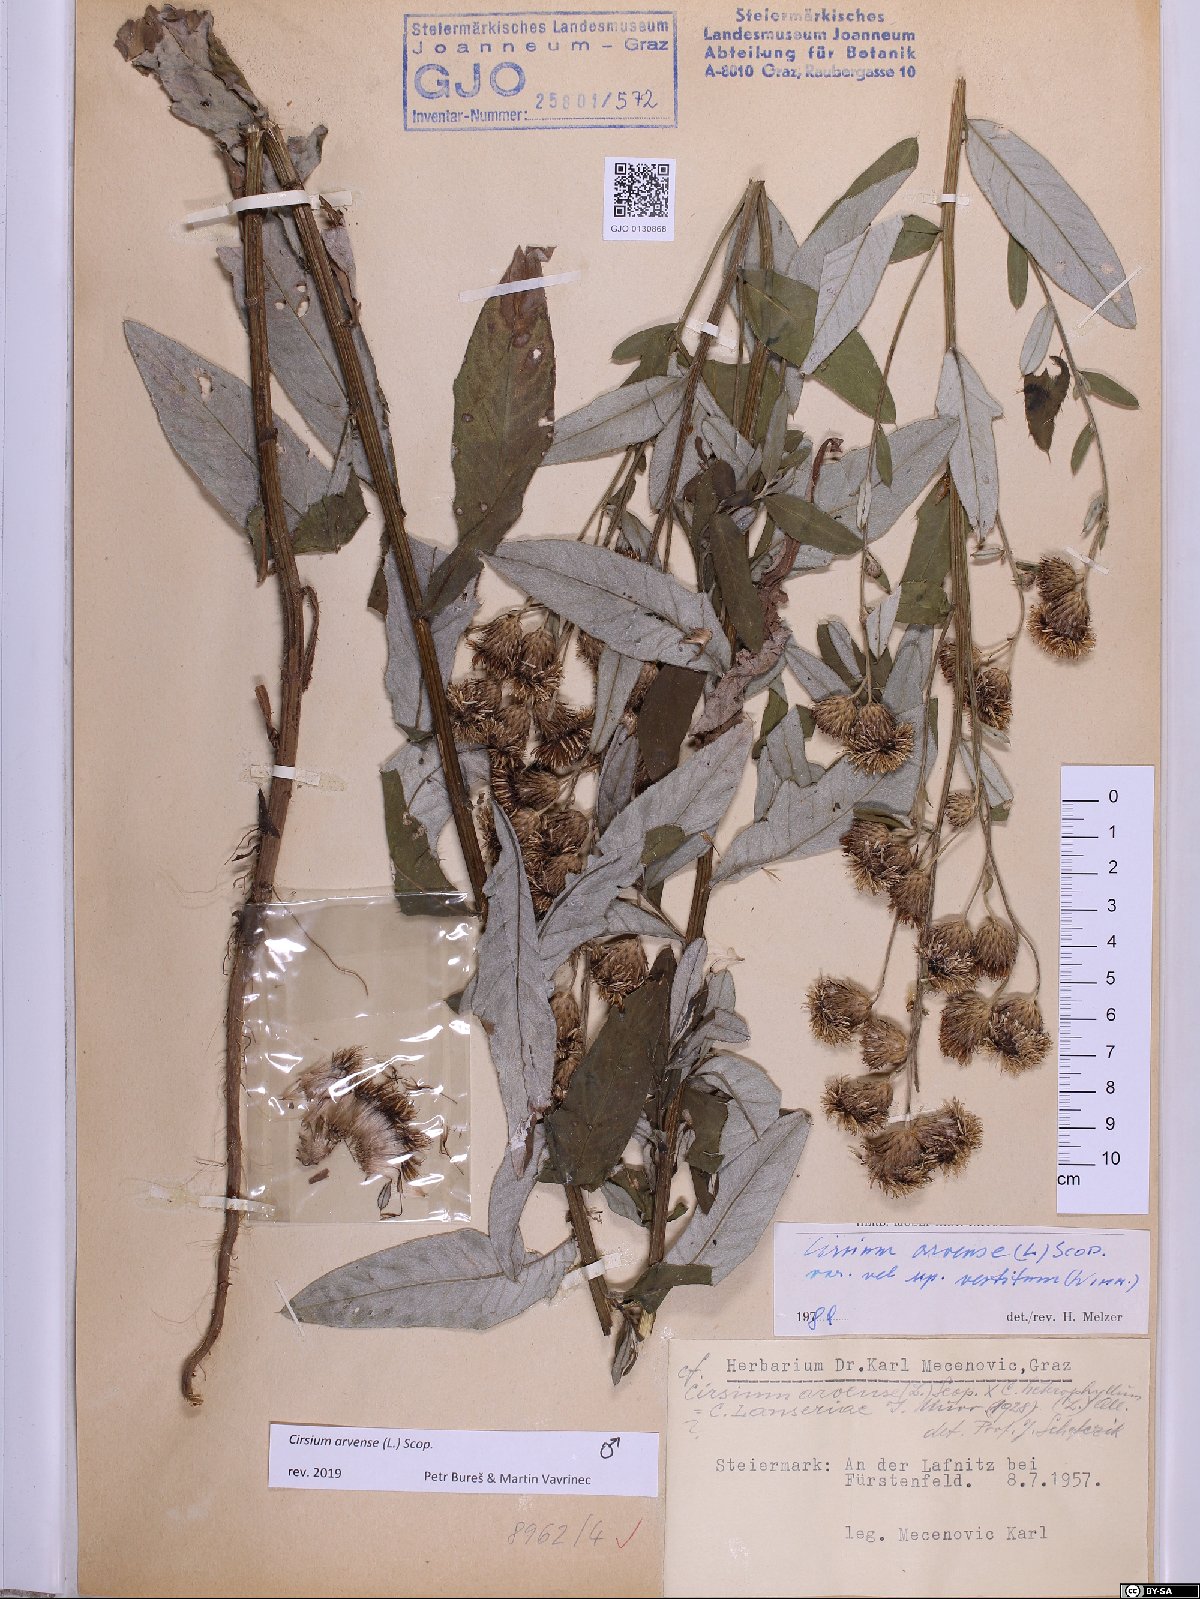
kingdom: Plantae
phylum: Tracheophyta
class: Magnoliopsida
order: Asterales
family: Asteraceae
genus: Cirsium
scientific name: Cirsium arvense
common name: Creeping thistle
